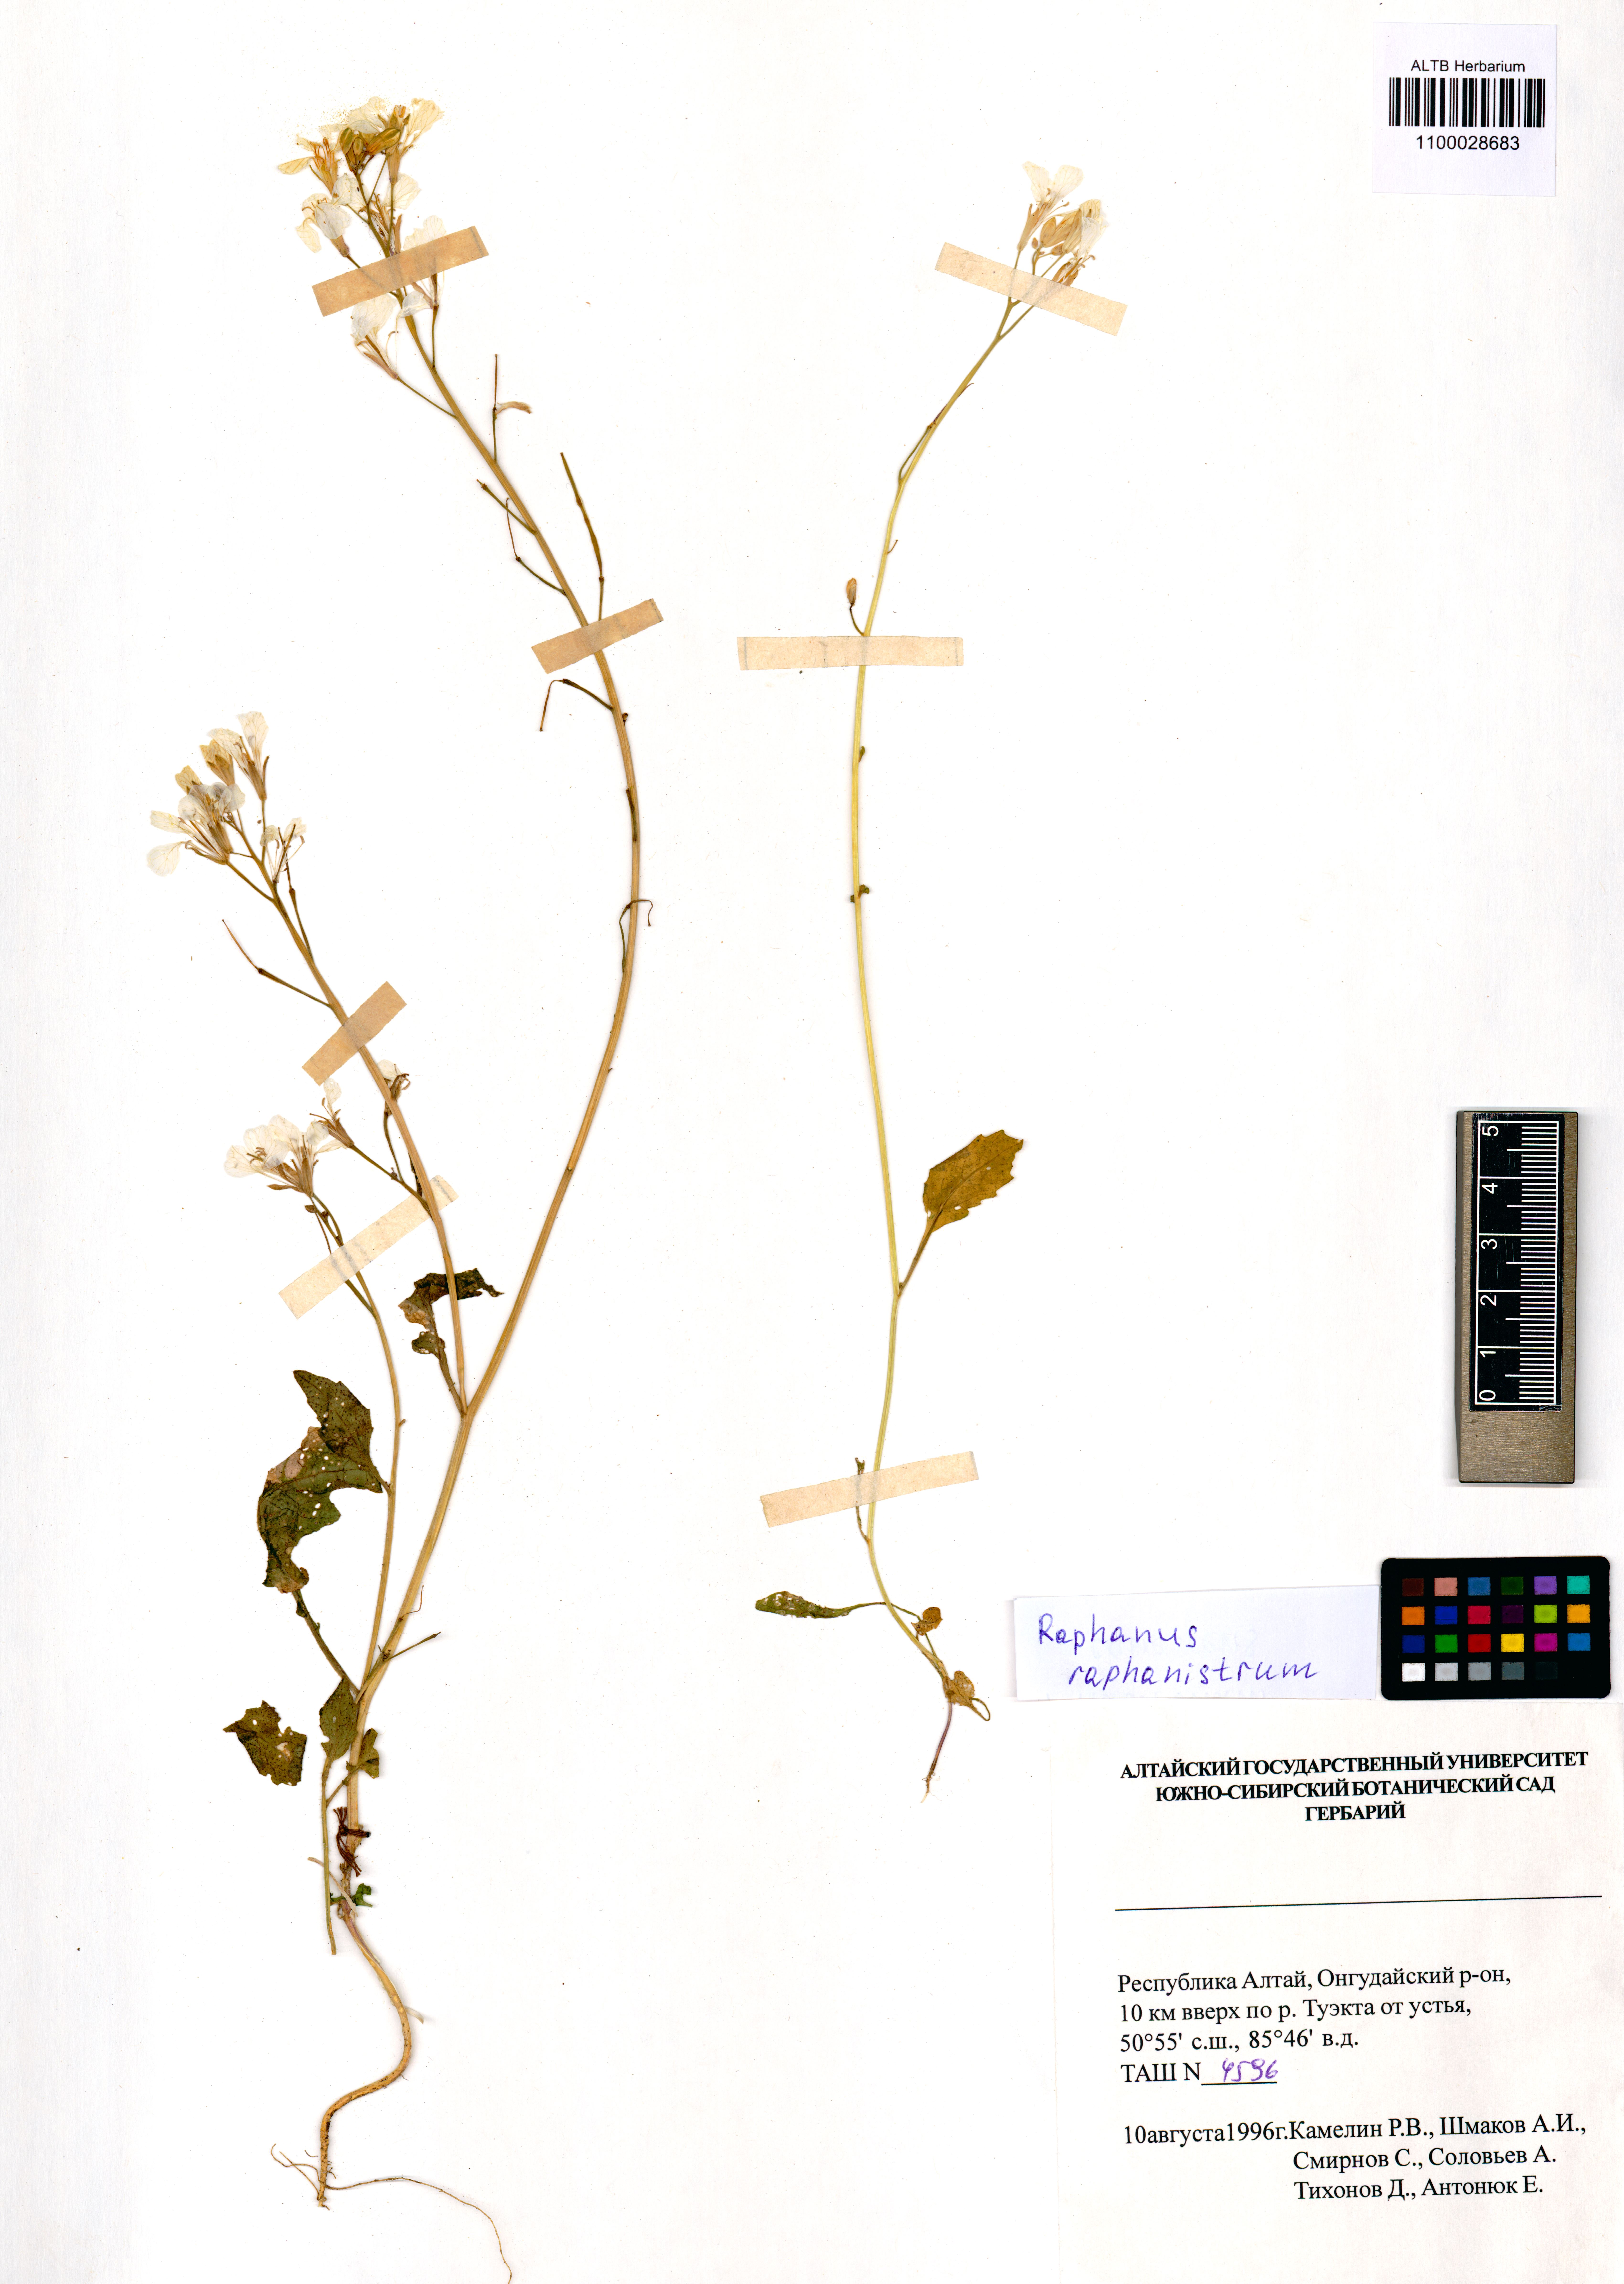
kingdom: Plantae
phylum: Tracheophyta
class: Magnoliopsida
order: Brassicales
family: Brassicaceae
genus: Raphanus
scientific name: Raphanus raphanistrum
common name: Wild radish
